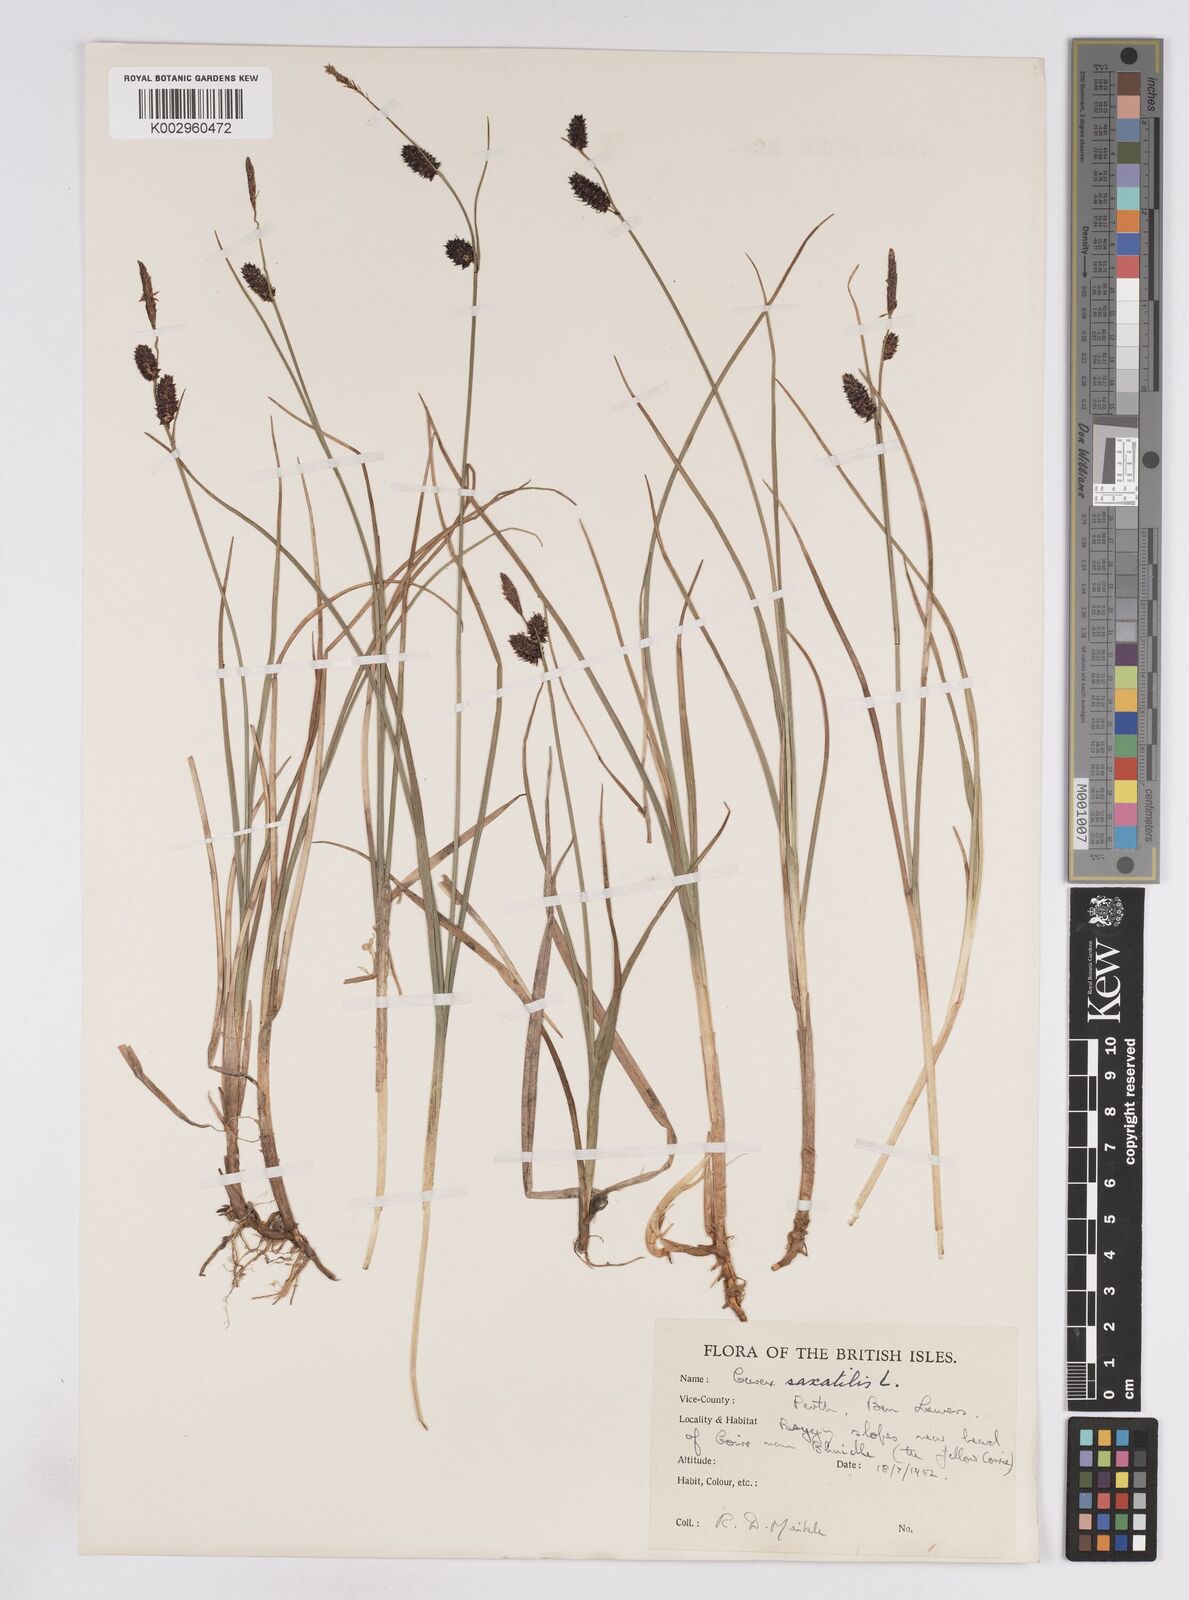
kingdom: Plantae
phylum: Tracheophyta
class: Liliopsida
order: Poales
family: Cyperaceae
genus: Carex
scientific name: Carex saxatilis
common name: Russet sedge
